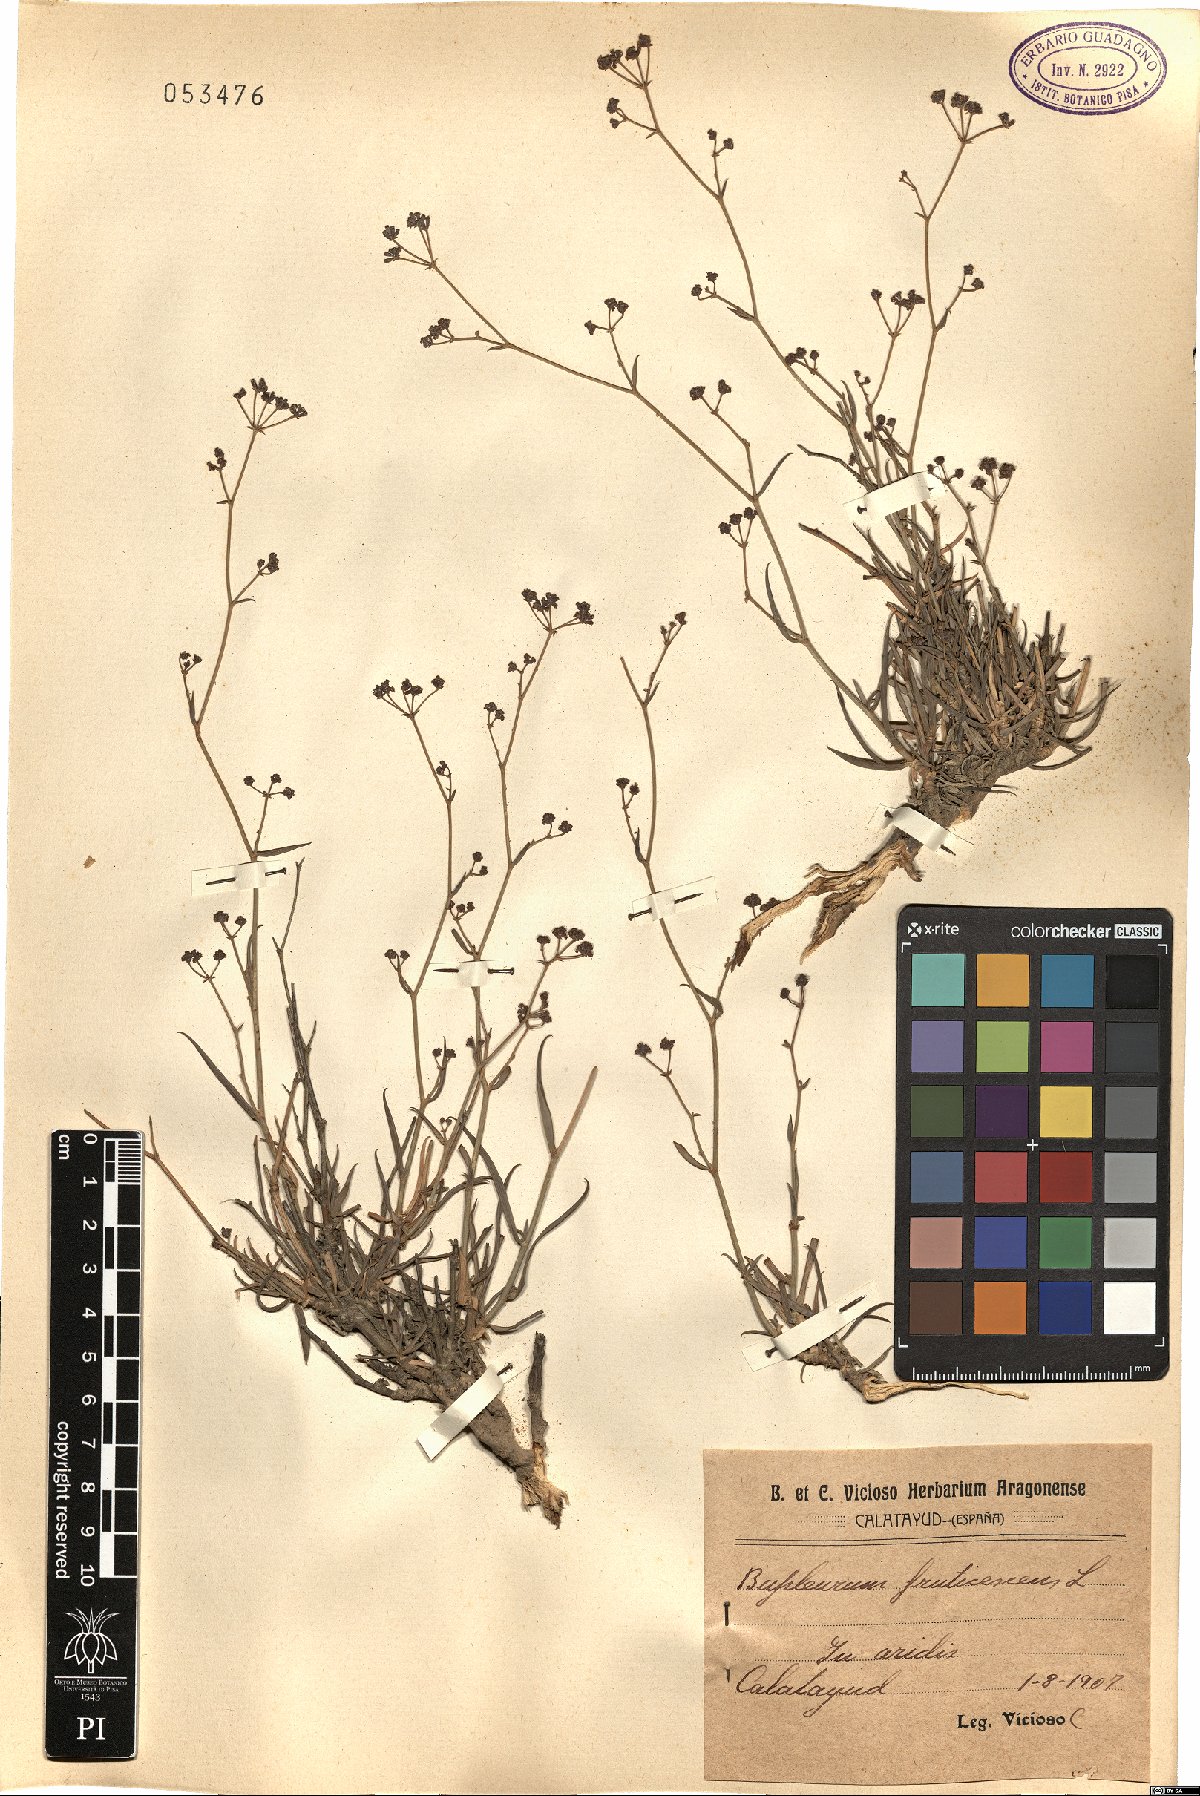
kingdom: Plantae
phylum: Tracheophyta
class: Magnoliopsida
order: Apiales
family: Apiaceae
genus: Bupleurum
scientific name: Bupleurum fruticescens
